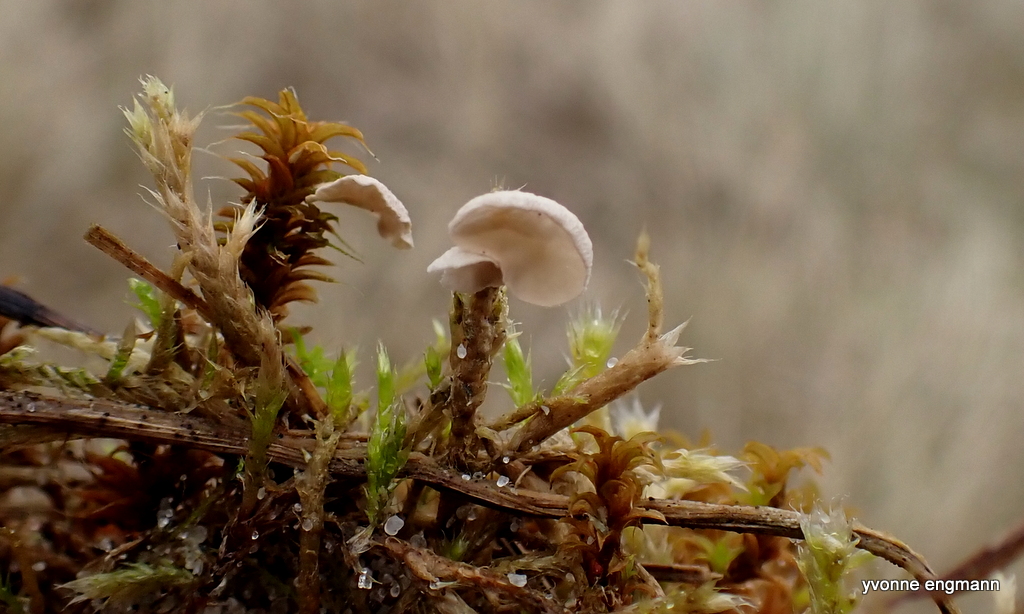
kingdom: Fungi
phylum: Basidiomycota
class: Agaricomycetes
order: Agaricales
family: Hygrophoraceae
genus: Arrhenia
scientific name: Arrhenia retiruga
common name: lille fontænehat
